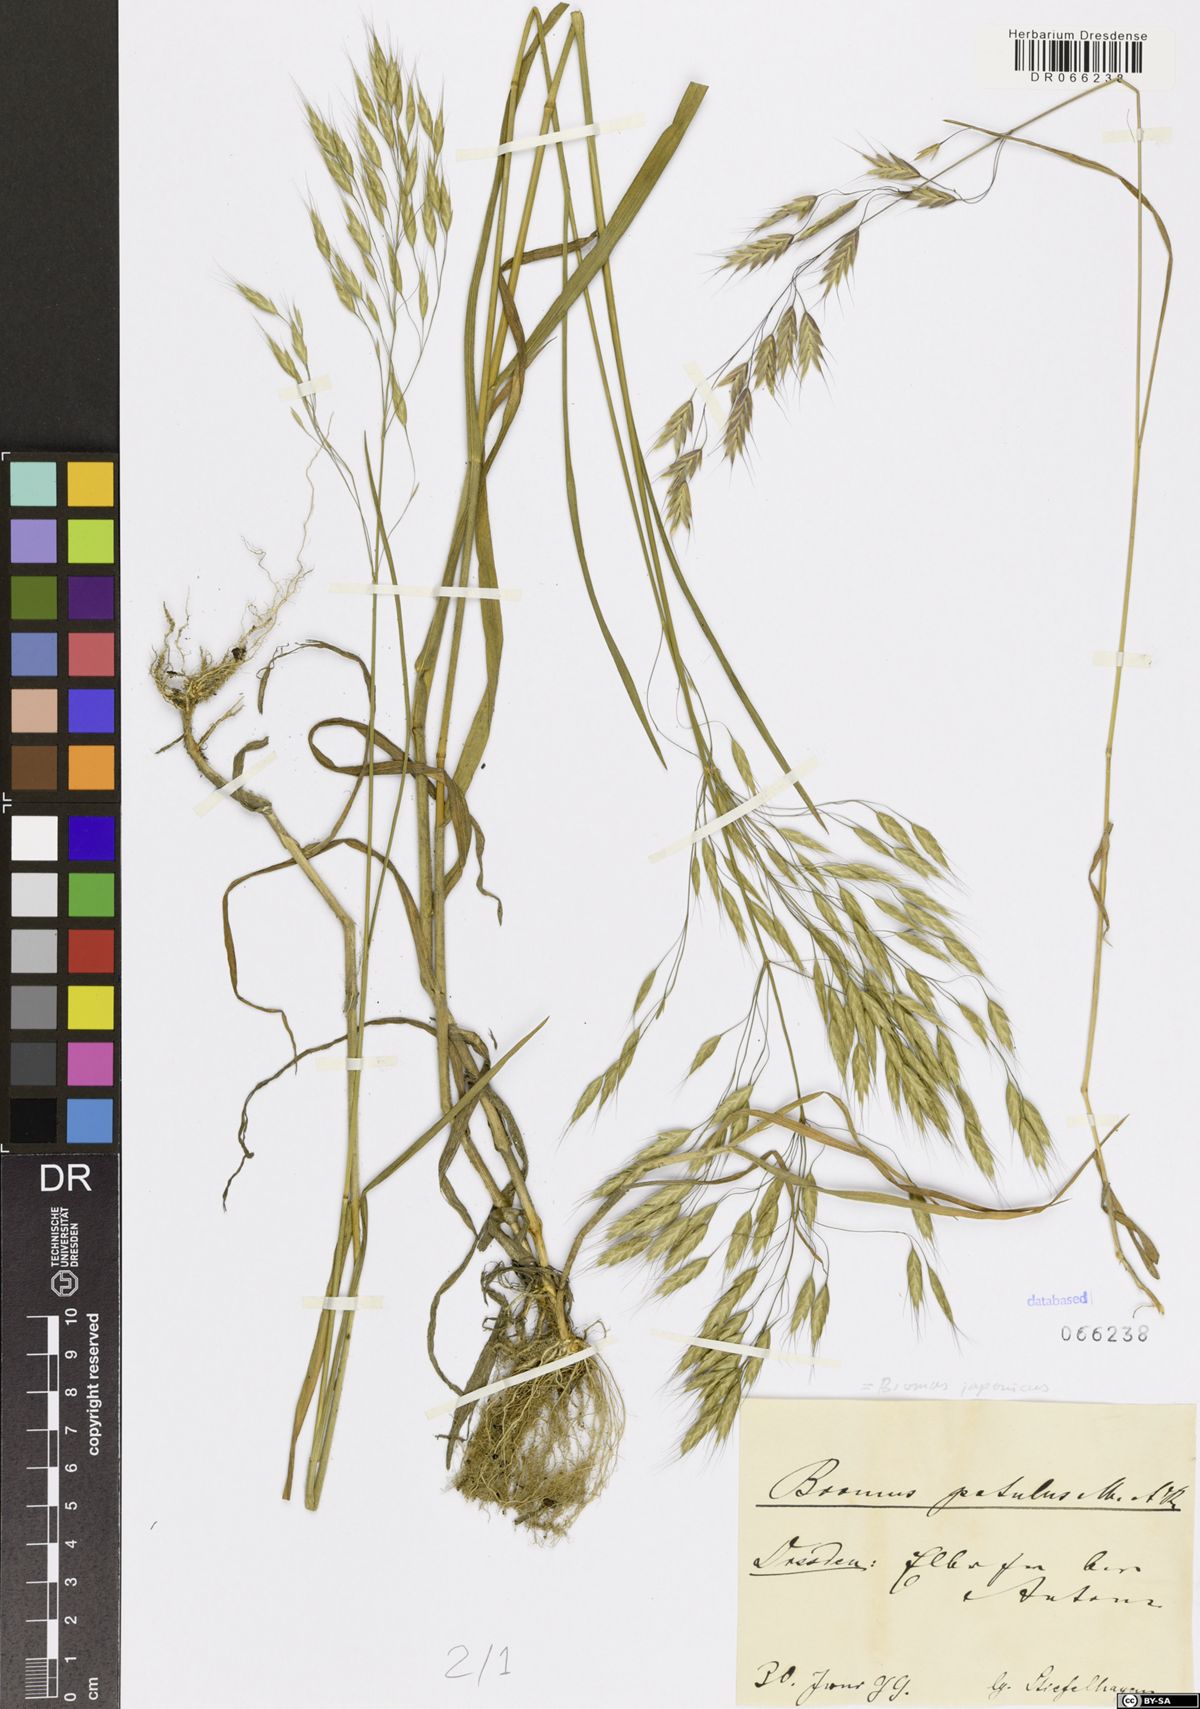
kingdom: Plantae
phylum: Tracheophyta
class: Liliopsida
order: Poales
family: Poaceae
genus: Bromus
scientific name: Bromus japonicus
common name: Japanese brome
